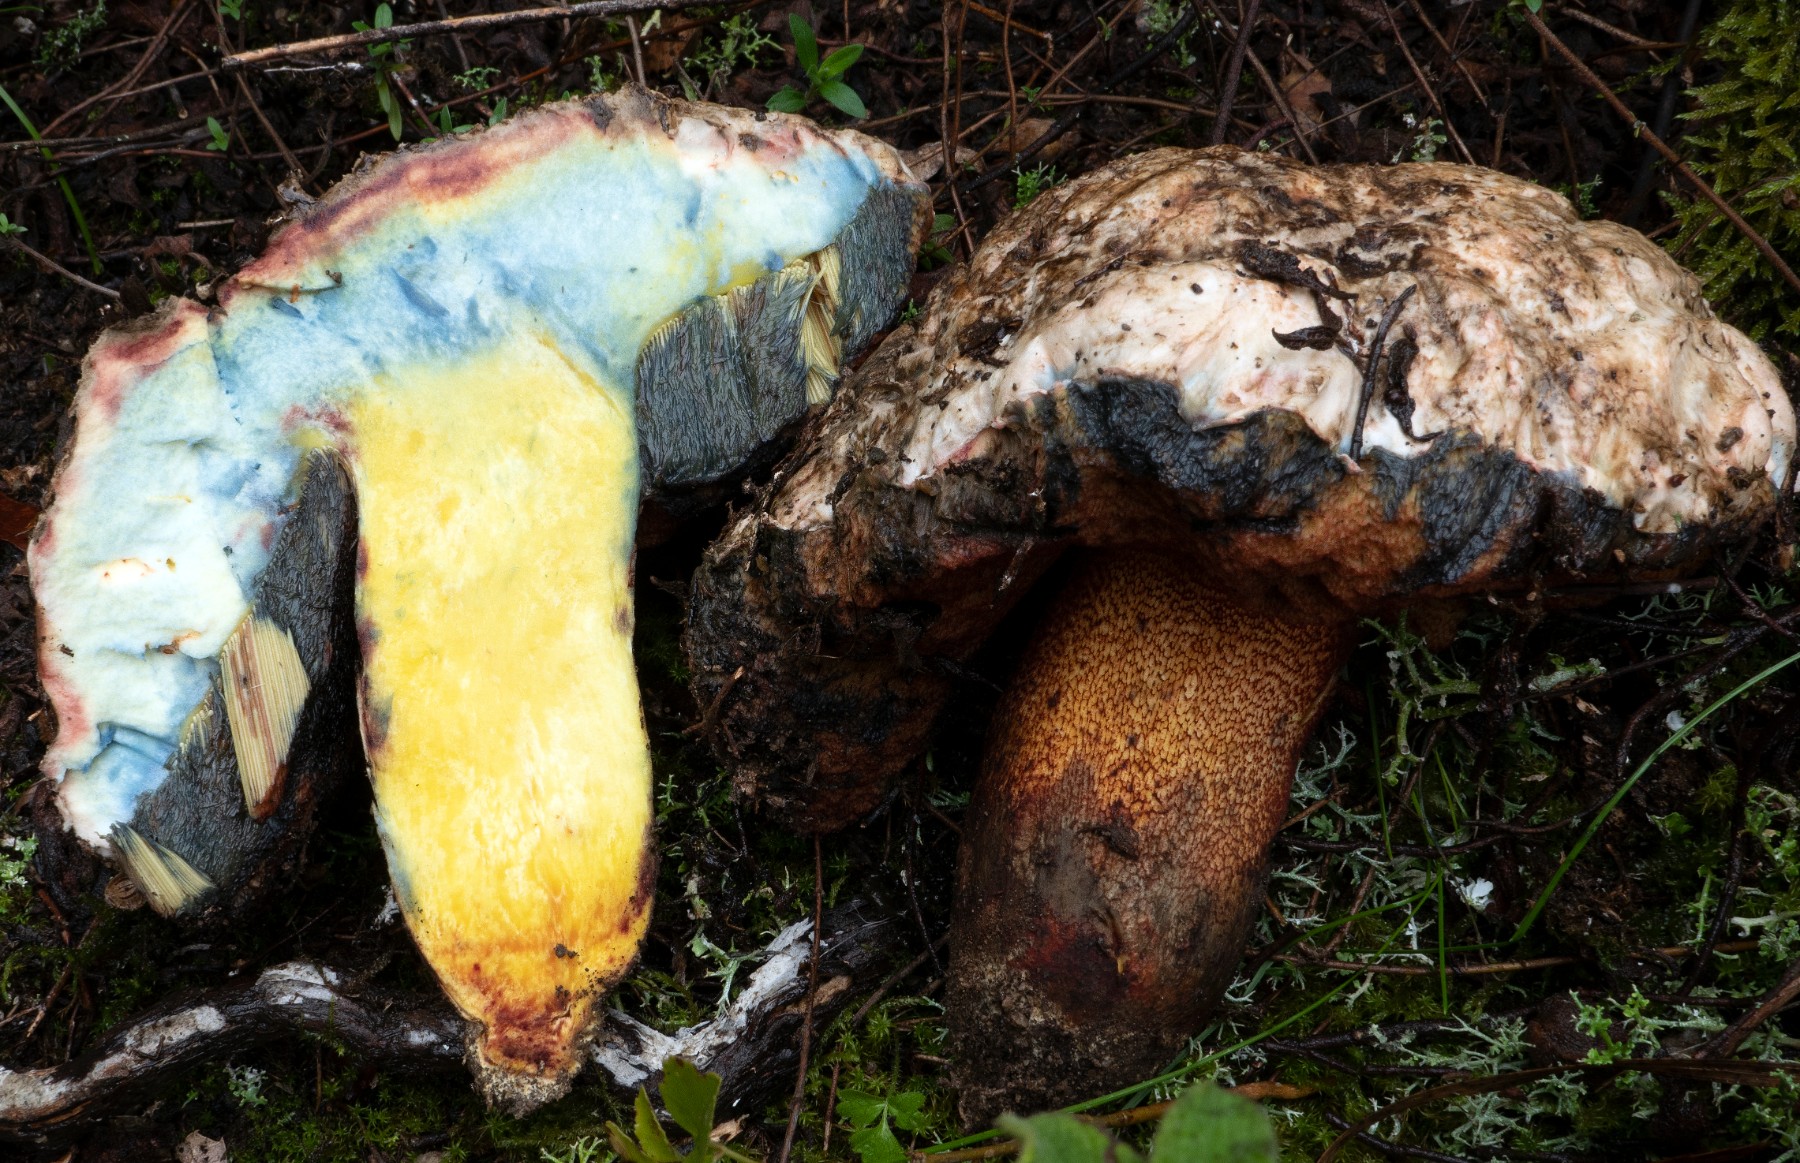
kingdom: Fungi
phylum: Basidiomycota
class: Agaricomycetes
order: Boletales
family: Boletaceae
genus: Rubroboletus
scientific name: Rubroboletus rhodoxanthus
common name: rødgul rørhat
